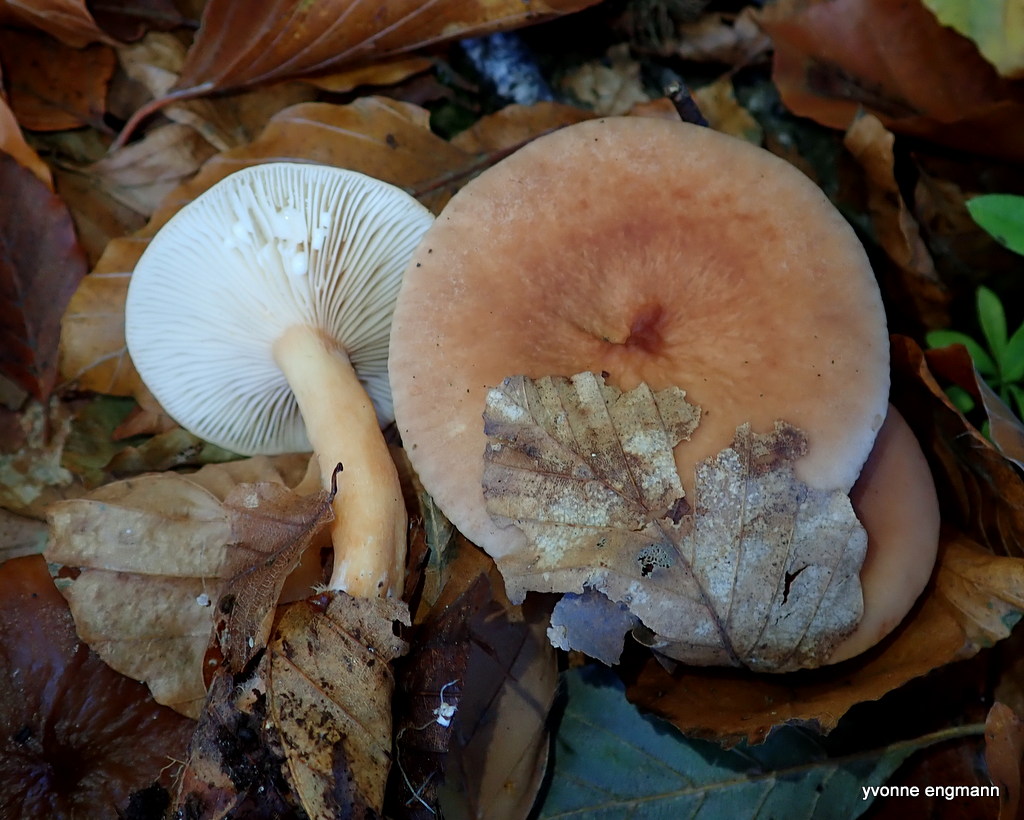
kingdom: Fungi
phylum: Basidiomycota
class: Agaricomycetes
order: Russulales
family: Russulaceae
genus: Lactarius
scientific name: Lactarius subdulcis
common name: sødlig mælkehat
